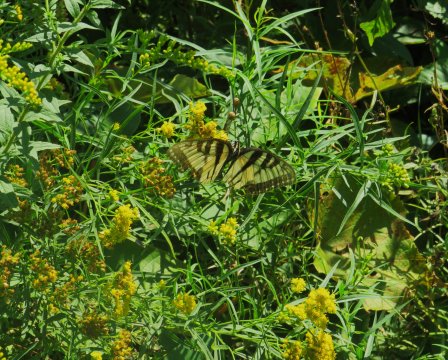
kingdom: Animalia
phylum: Arthropoda
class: Insecta
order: Lepidoptera
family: Papilionidae
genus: Pterourus
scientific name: Pterourus glaucus
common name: Eastern Tiger Swallowtail
